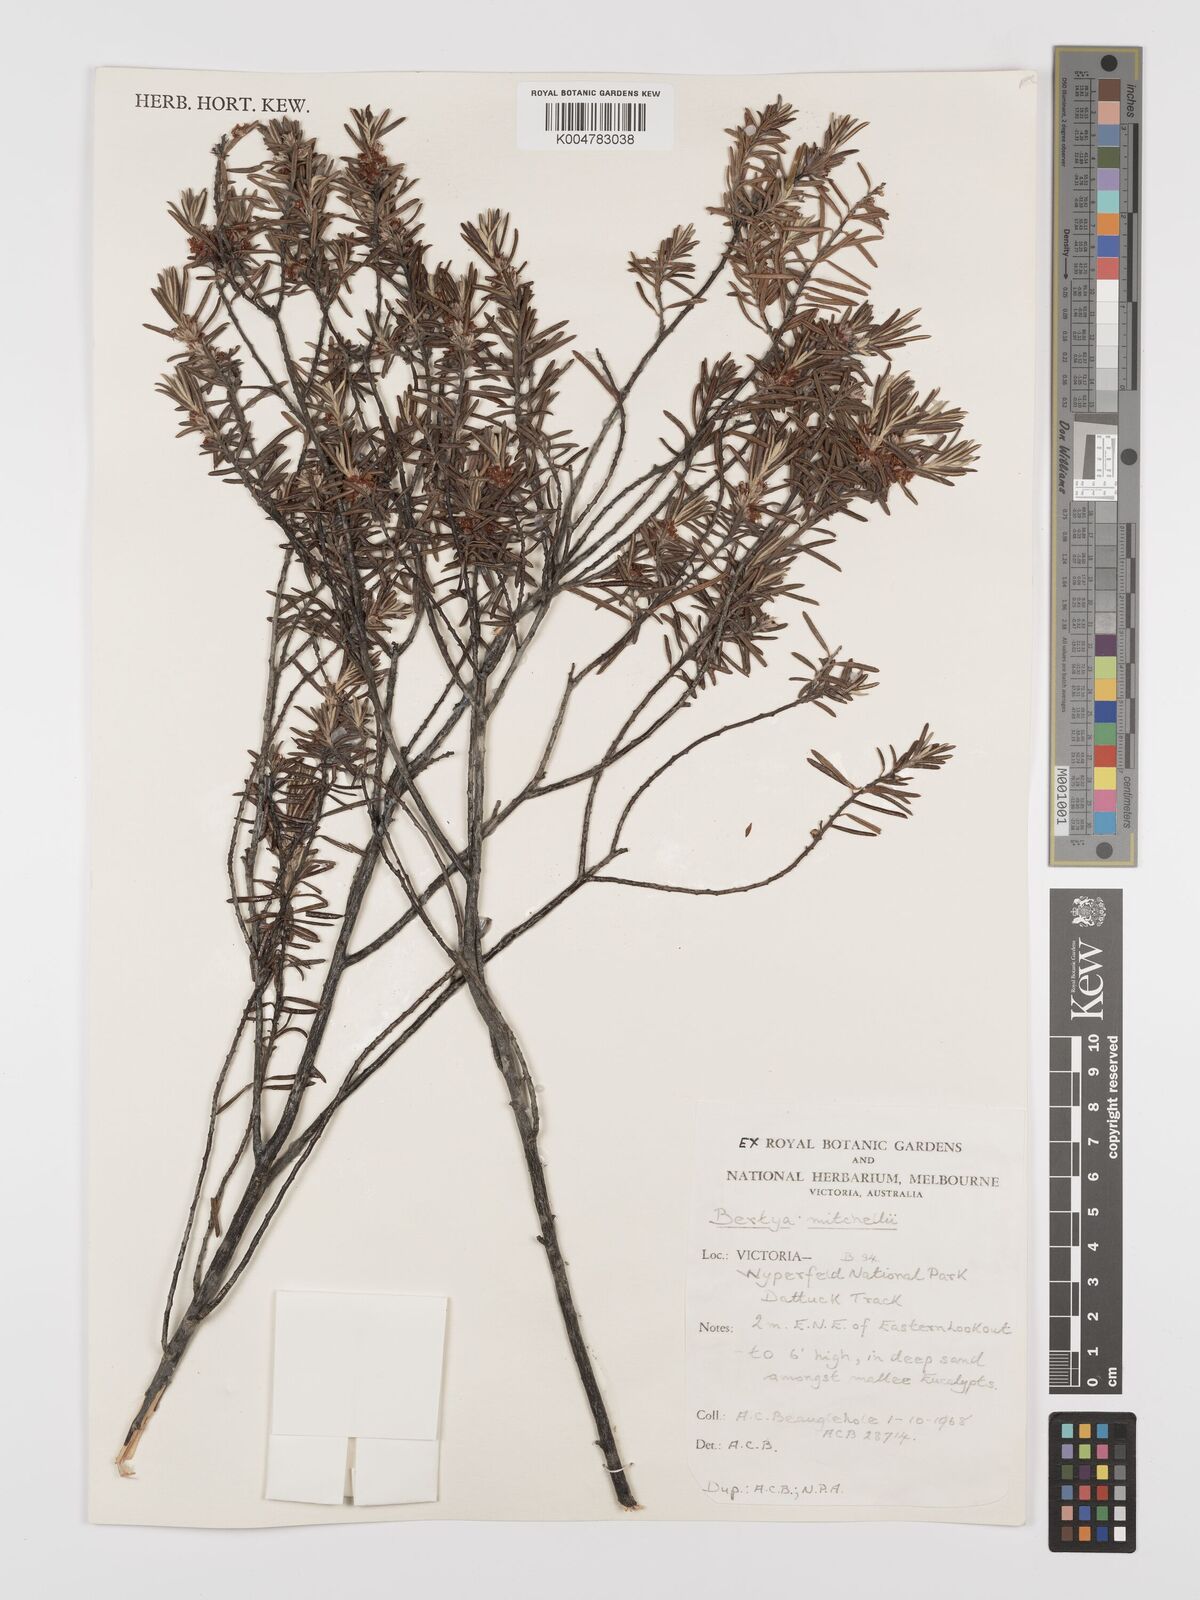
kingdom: Plantae
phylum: Tracheophyta
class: Magnoliopsida
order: Malpighiales
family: Euphorbiaceae
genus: Bertya
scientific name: Bertya oleifolia
